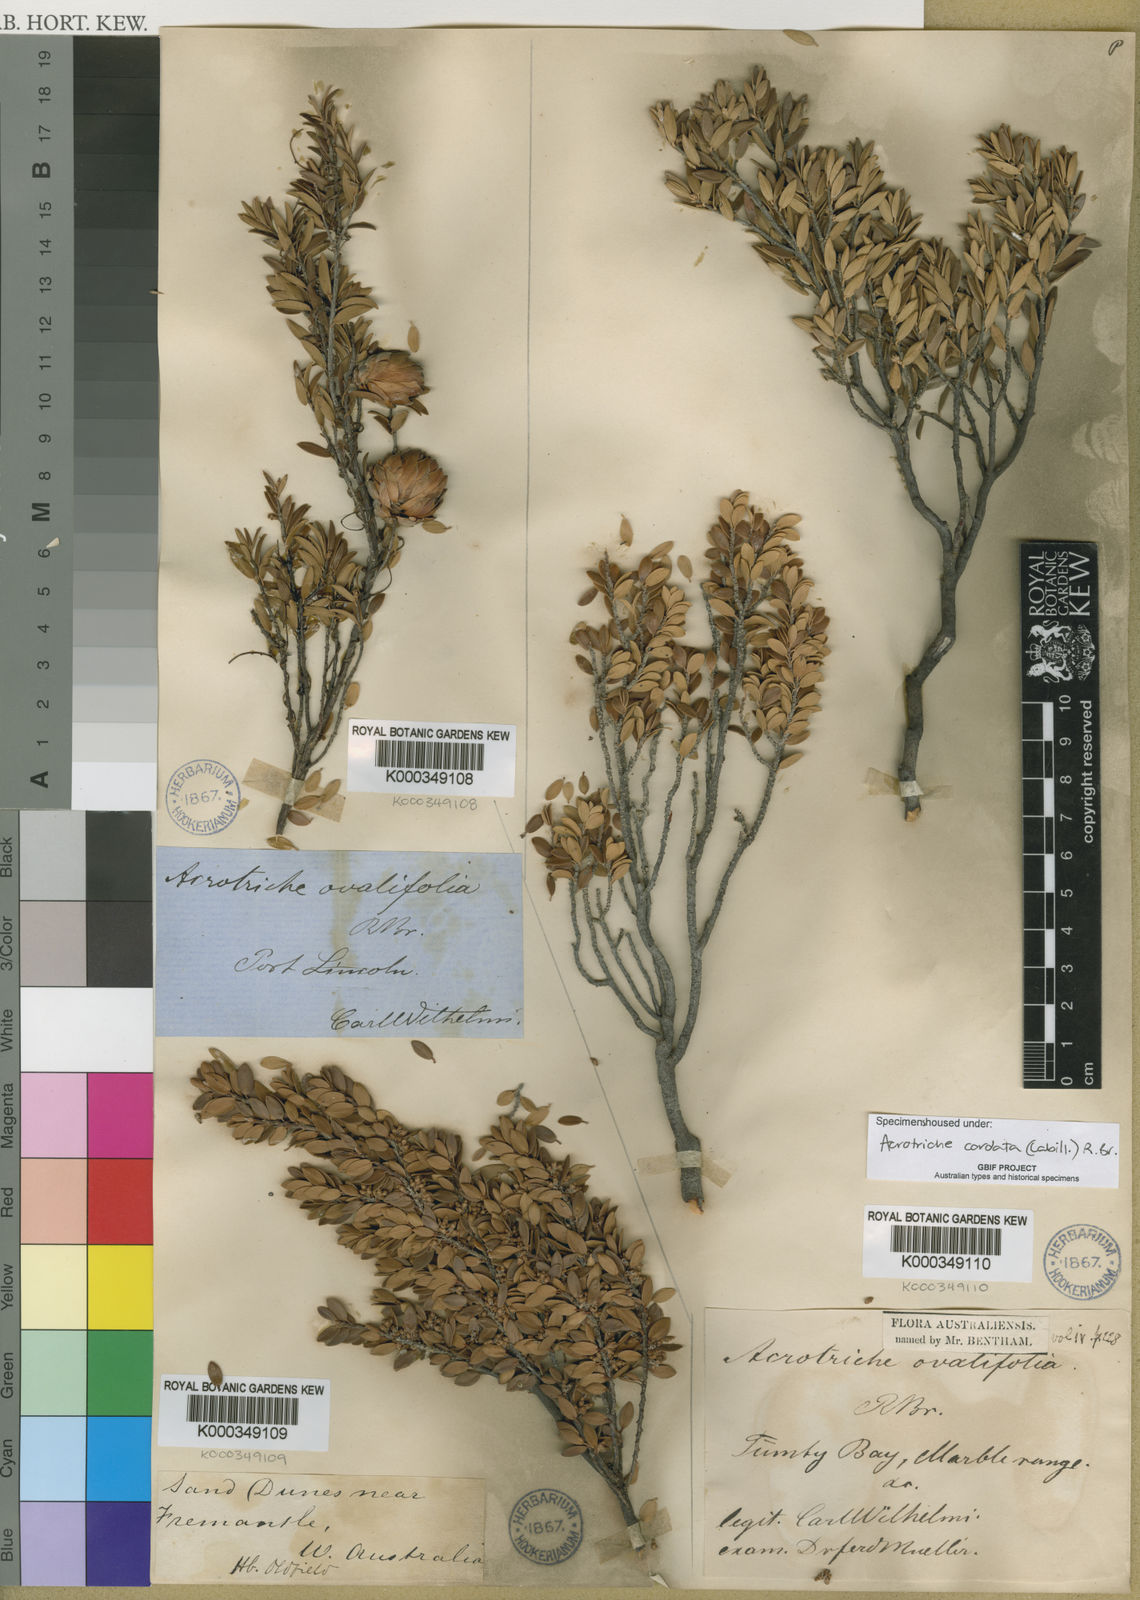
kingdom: Plantae
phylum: Tracheophyta
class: Magnoliopsida
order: Ericales
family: Ericaceae
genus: Acrotriche
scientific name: Acrotriche cordata
